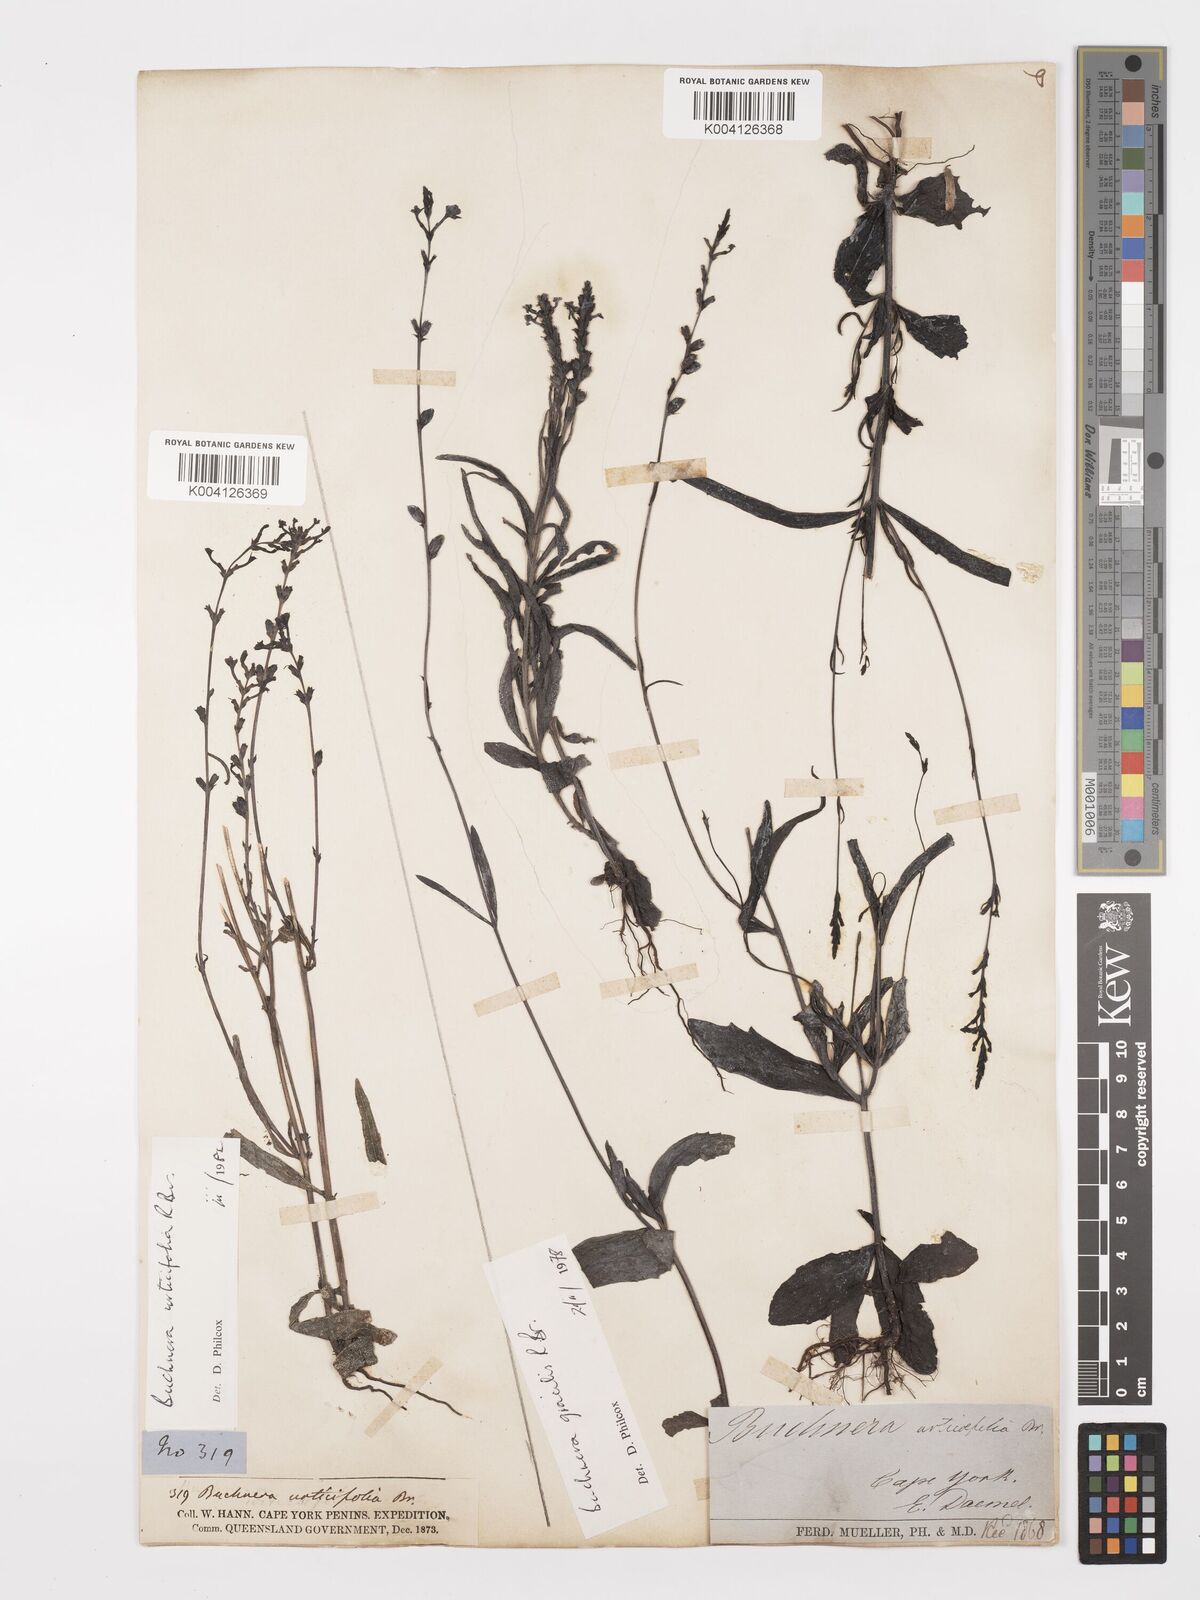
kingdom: Plantae
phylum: Tracheophyta
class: Magnoliopsida
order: Lamiales
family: Orobanchaceae
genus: Buchnera
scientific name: Buchnera gracilis
